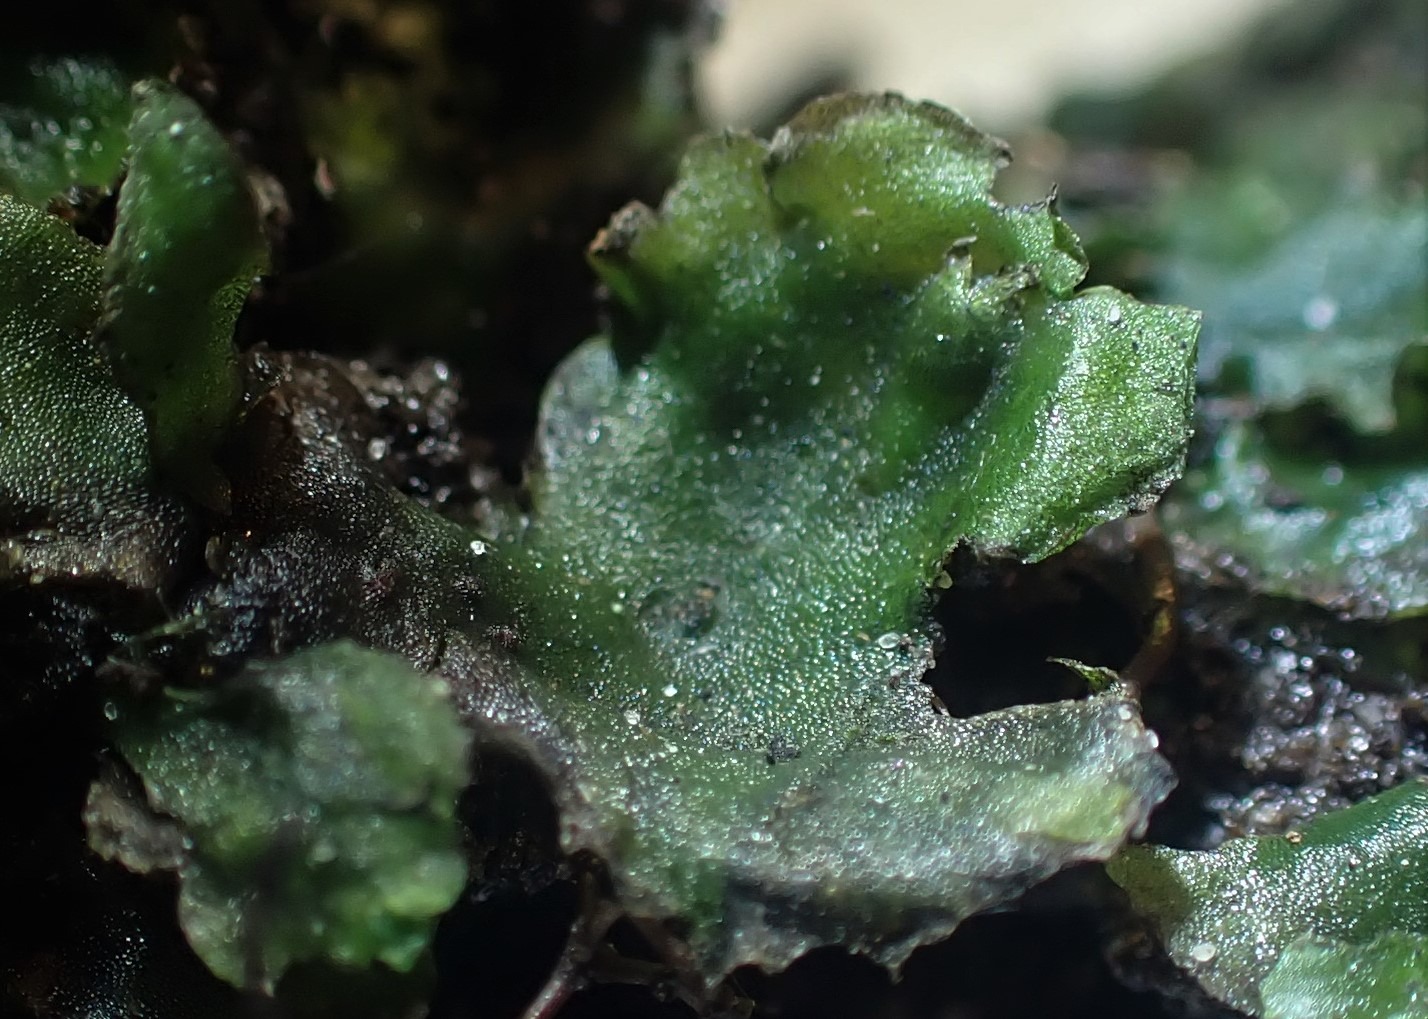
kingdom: Plantae
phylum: Marchantiophyta
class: Jungermanniopsida
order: Pelliales
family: Pelliaceae
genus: Pellia
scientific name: Pellia epiphylla
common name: Enbo ribbeløv
